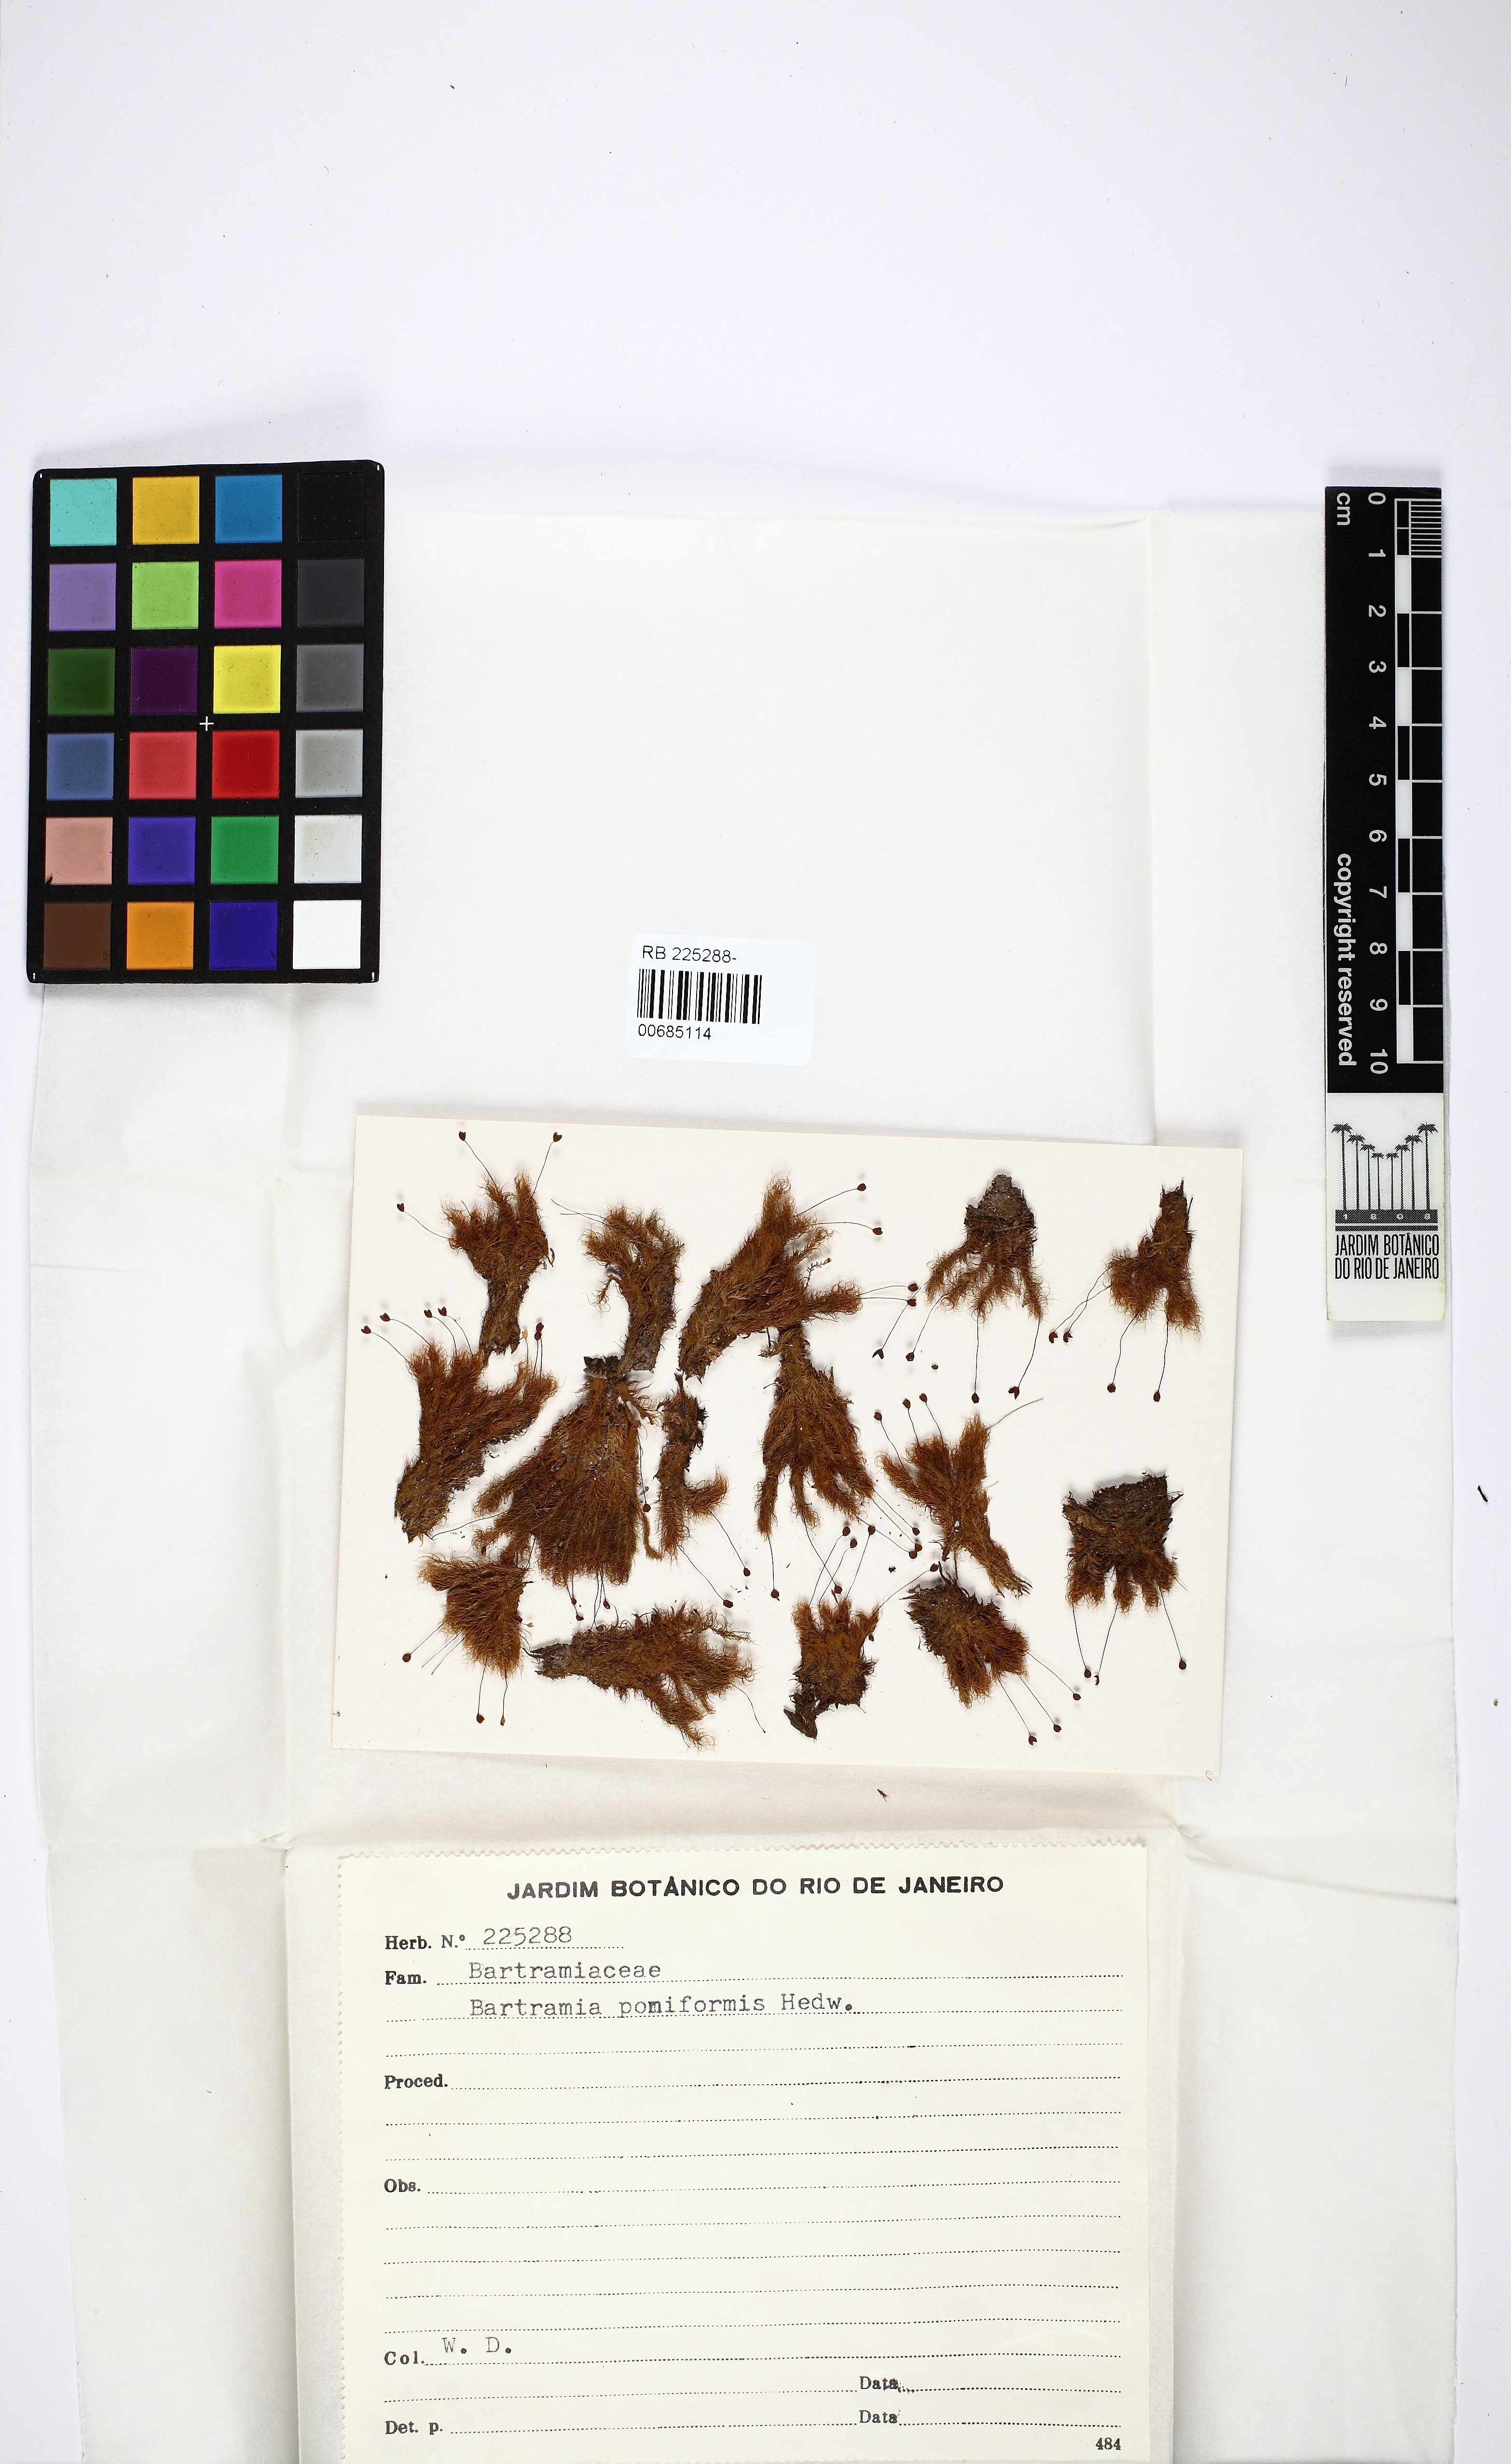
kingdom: Plantae
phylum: Bryophyta
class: Bryopsida
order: Bartramiales
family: Bartramiaceae
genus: Bartramia
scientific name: Bartramia pomiformis
